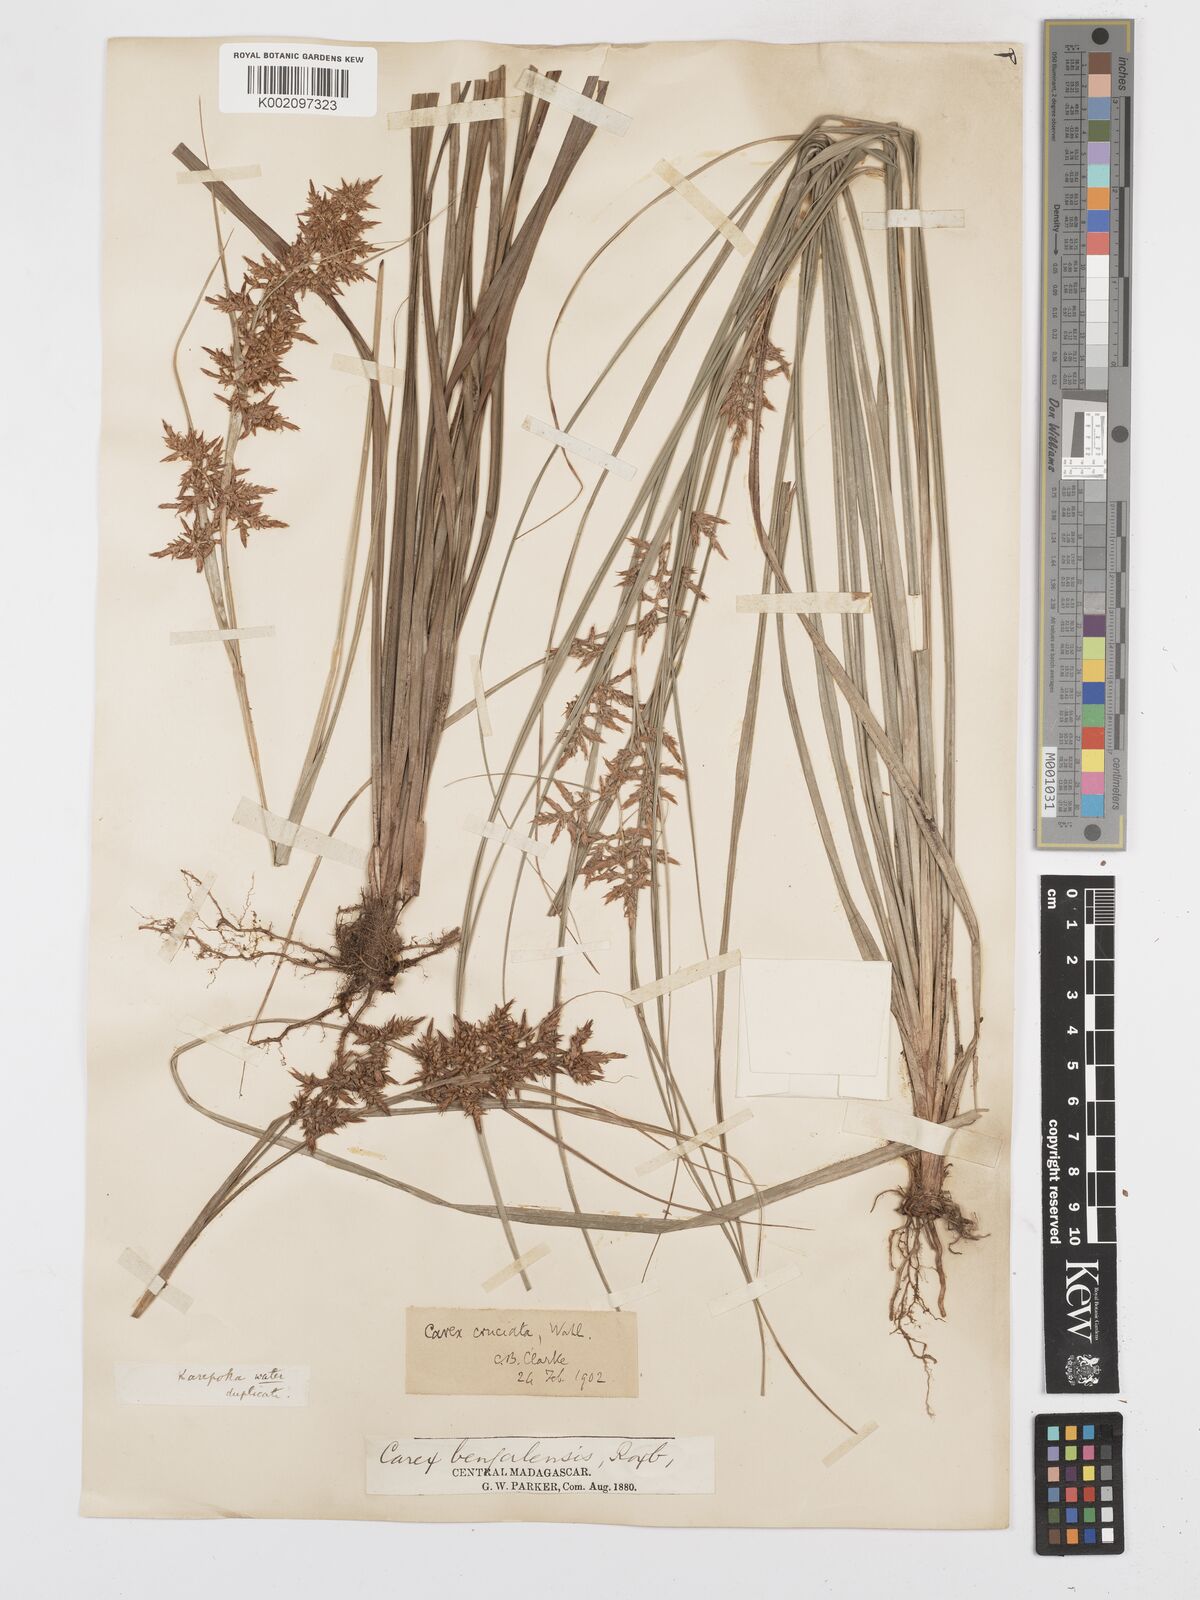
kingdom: Plantae
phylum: Tracheophyta
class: Liliopsida
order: Poales
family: Cyperaceae
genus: Carex
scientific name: Carex pyramidalis
